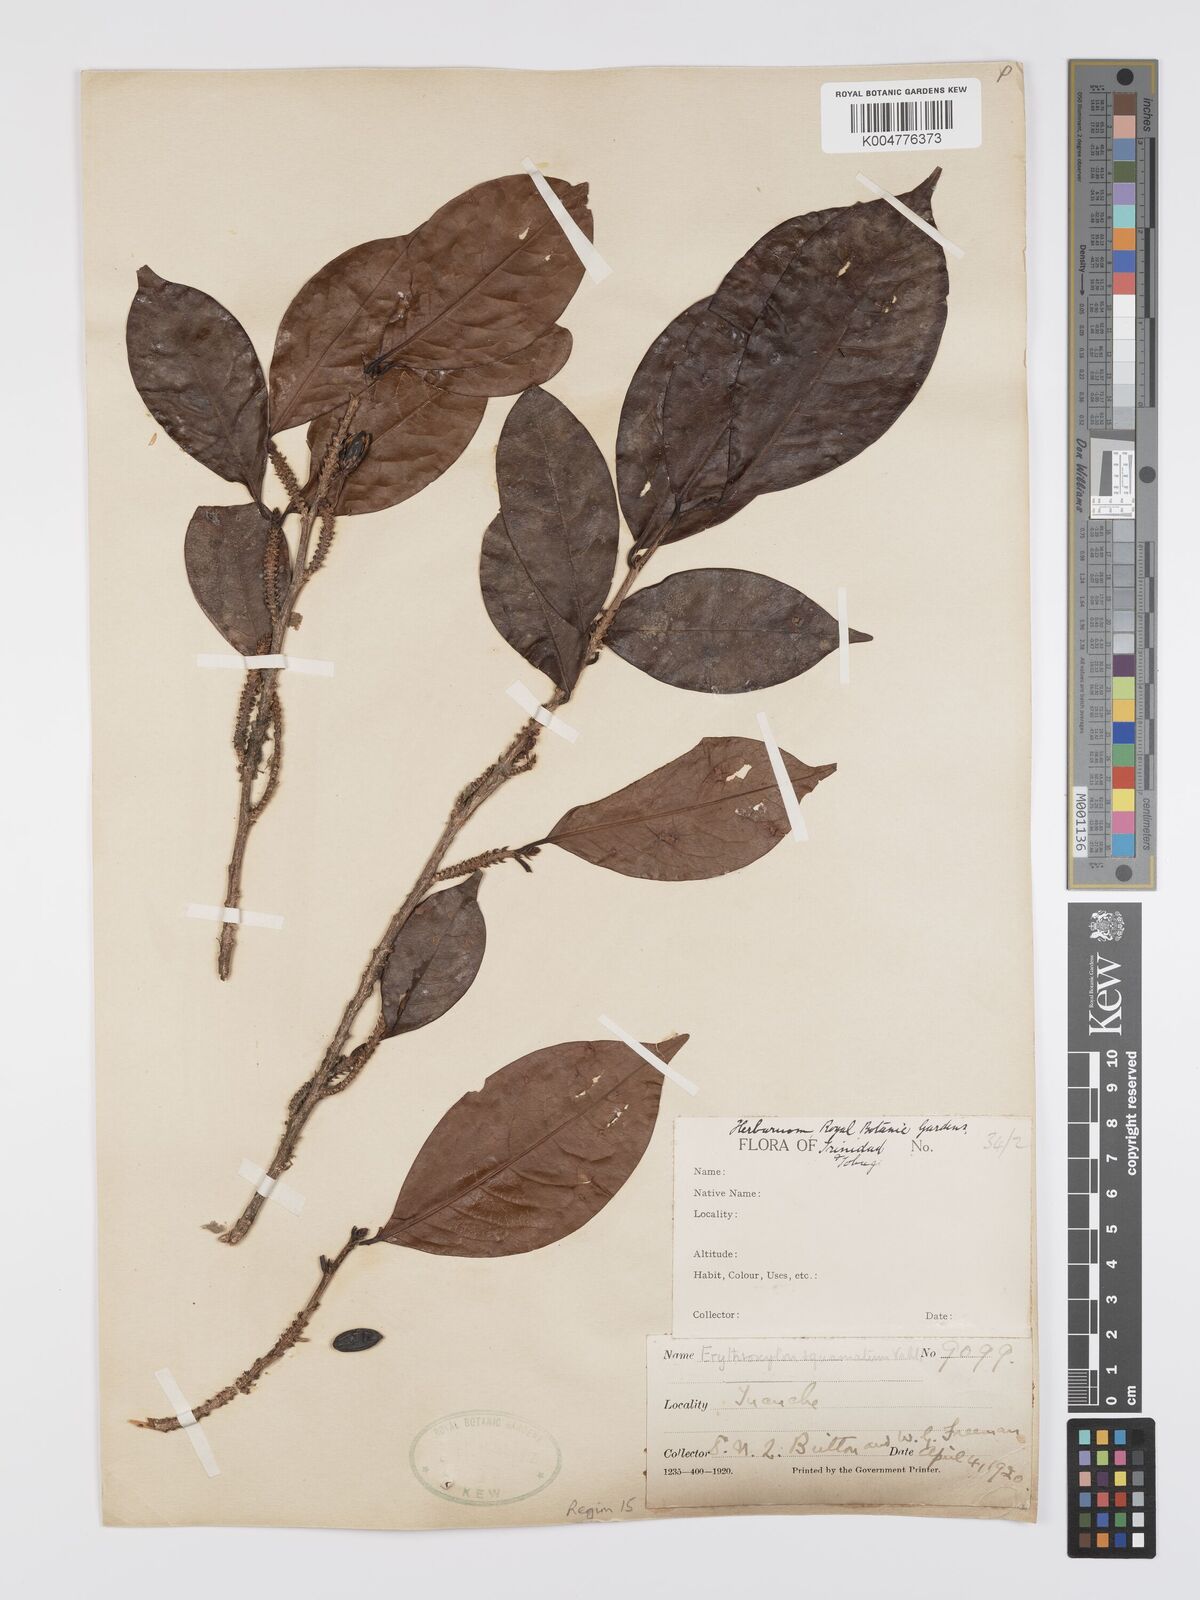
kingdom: Plantae
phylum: Tracheophyta
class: Magnoliopsida
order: Malpighiales
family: Erythroxylaceae
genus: Erythroxylum
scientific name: Erythroxylum squamatum
